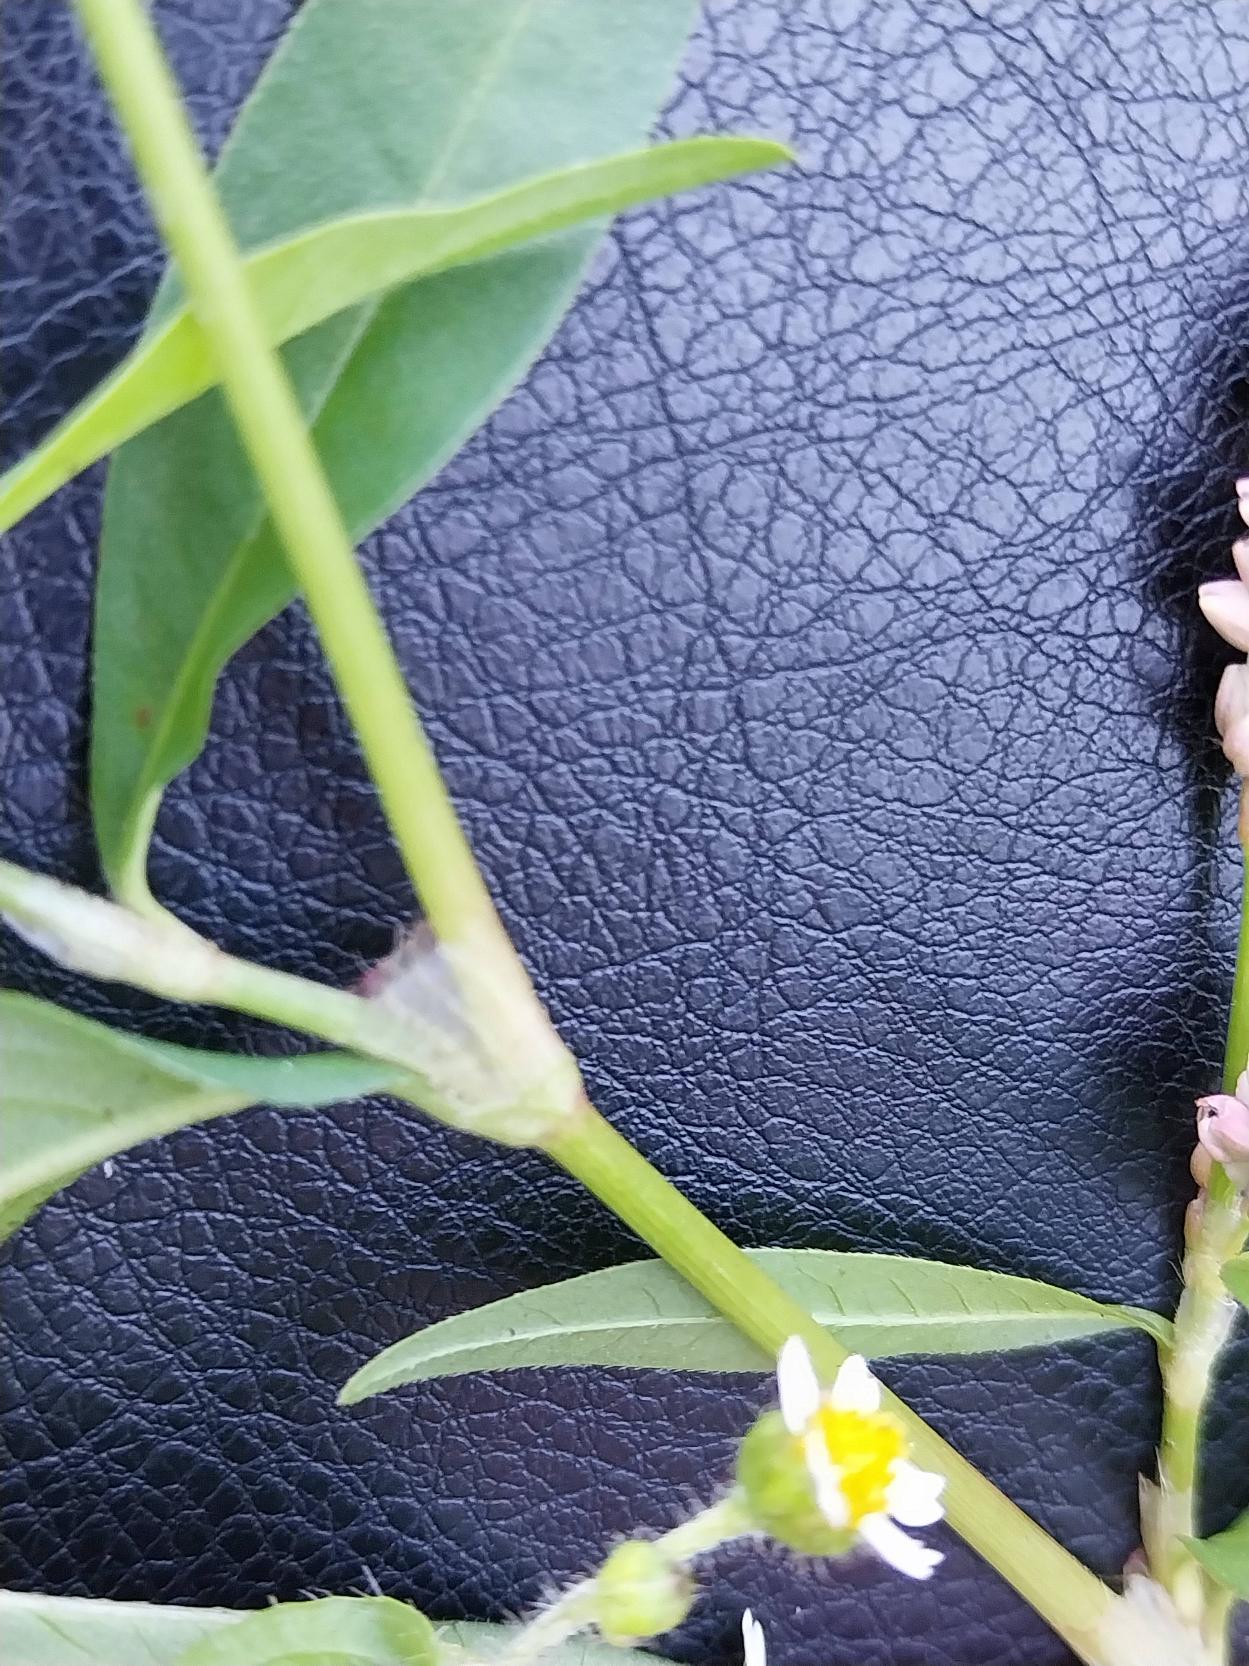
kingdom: Plantae
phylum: Tracheophyta
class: Magnoliopsida
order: Caryophyllales
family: Polygonaceae
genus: Persicaria
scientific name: Persicaria maculosa
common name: Fersken-pileurt
